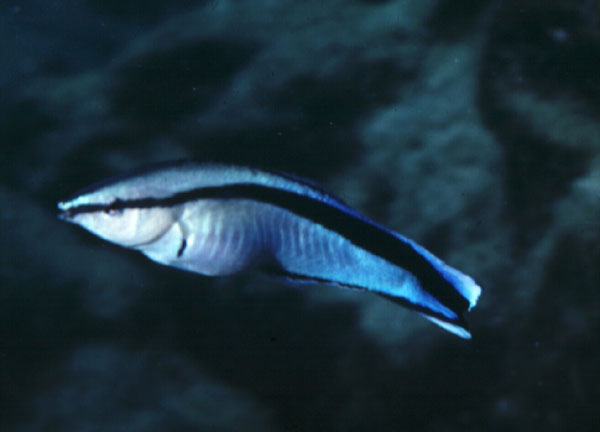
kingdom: Animalia
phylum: Chordata
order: Perciformes
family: Labridae
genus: Labroides
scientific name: Labroides dimidiatus
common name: Blue diesel wrasse
